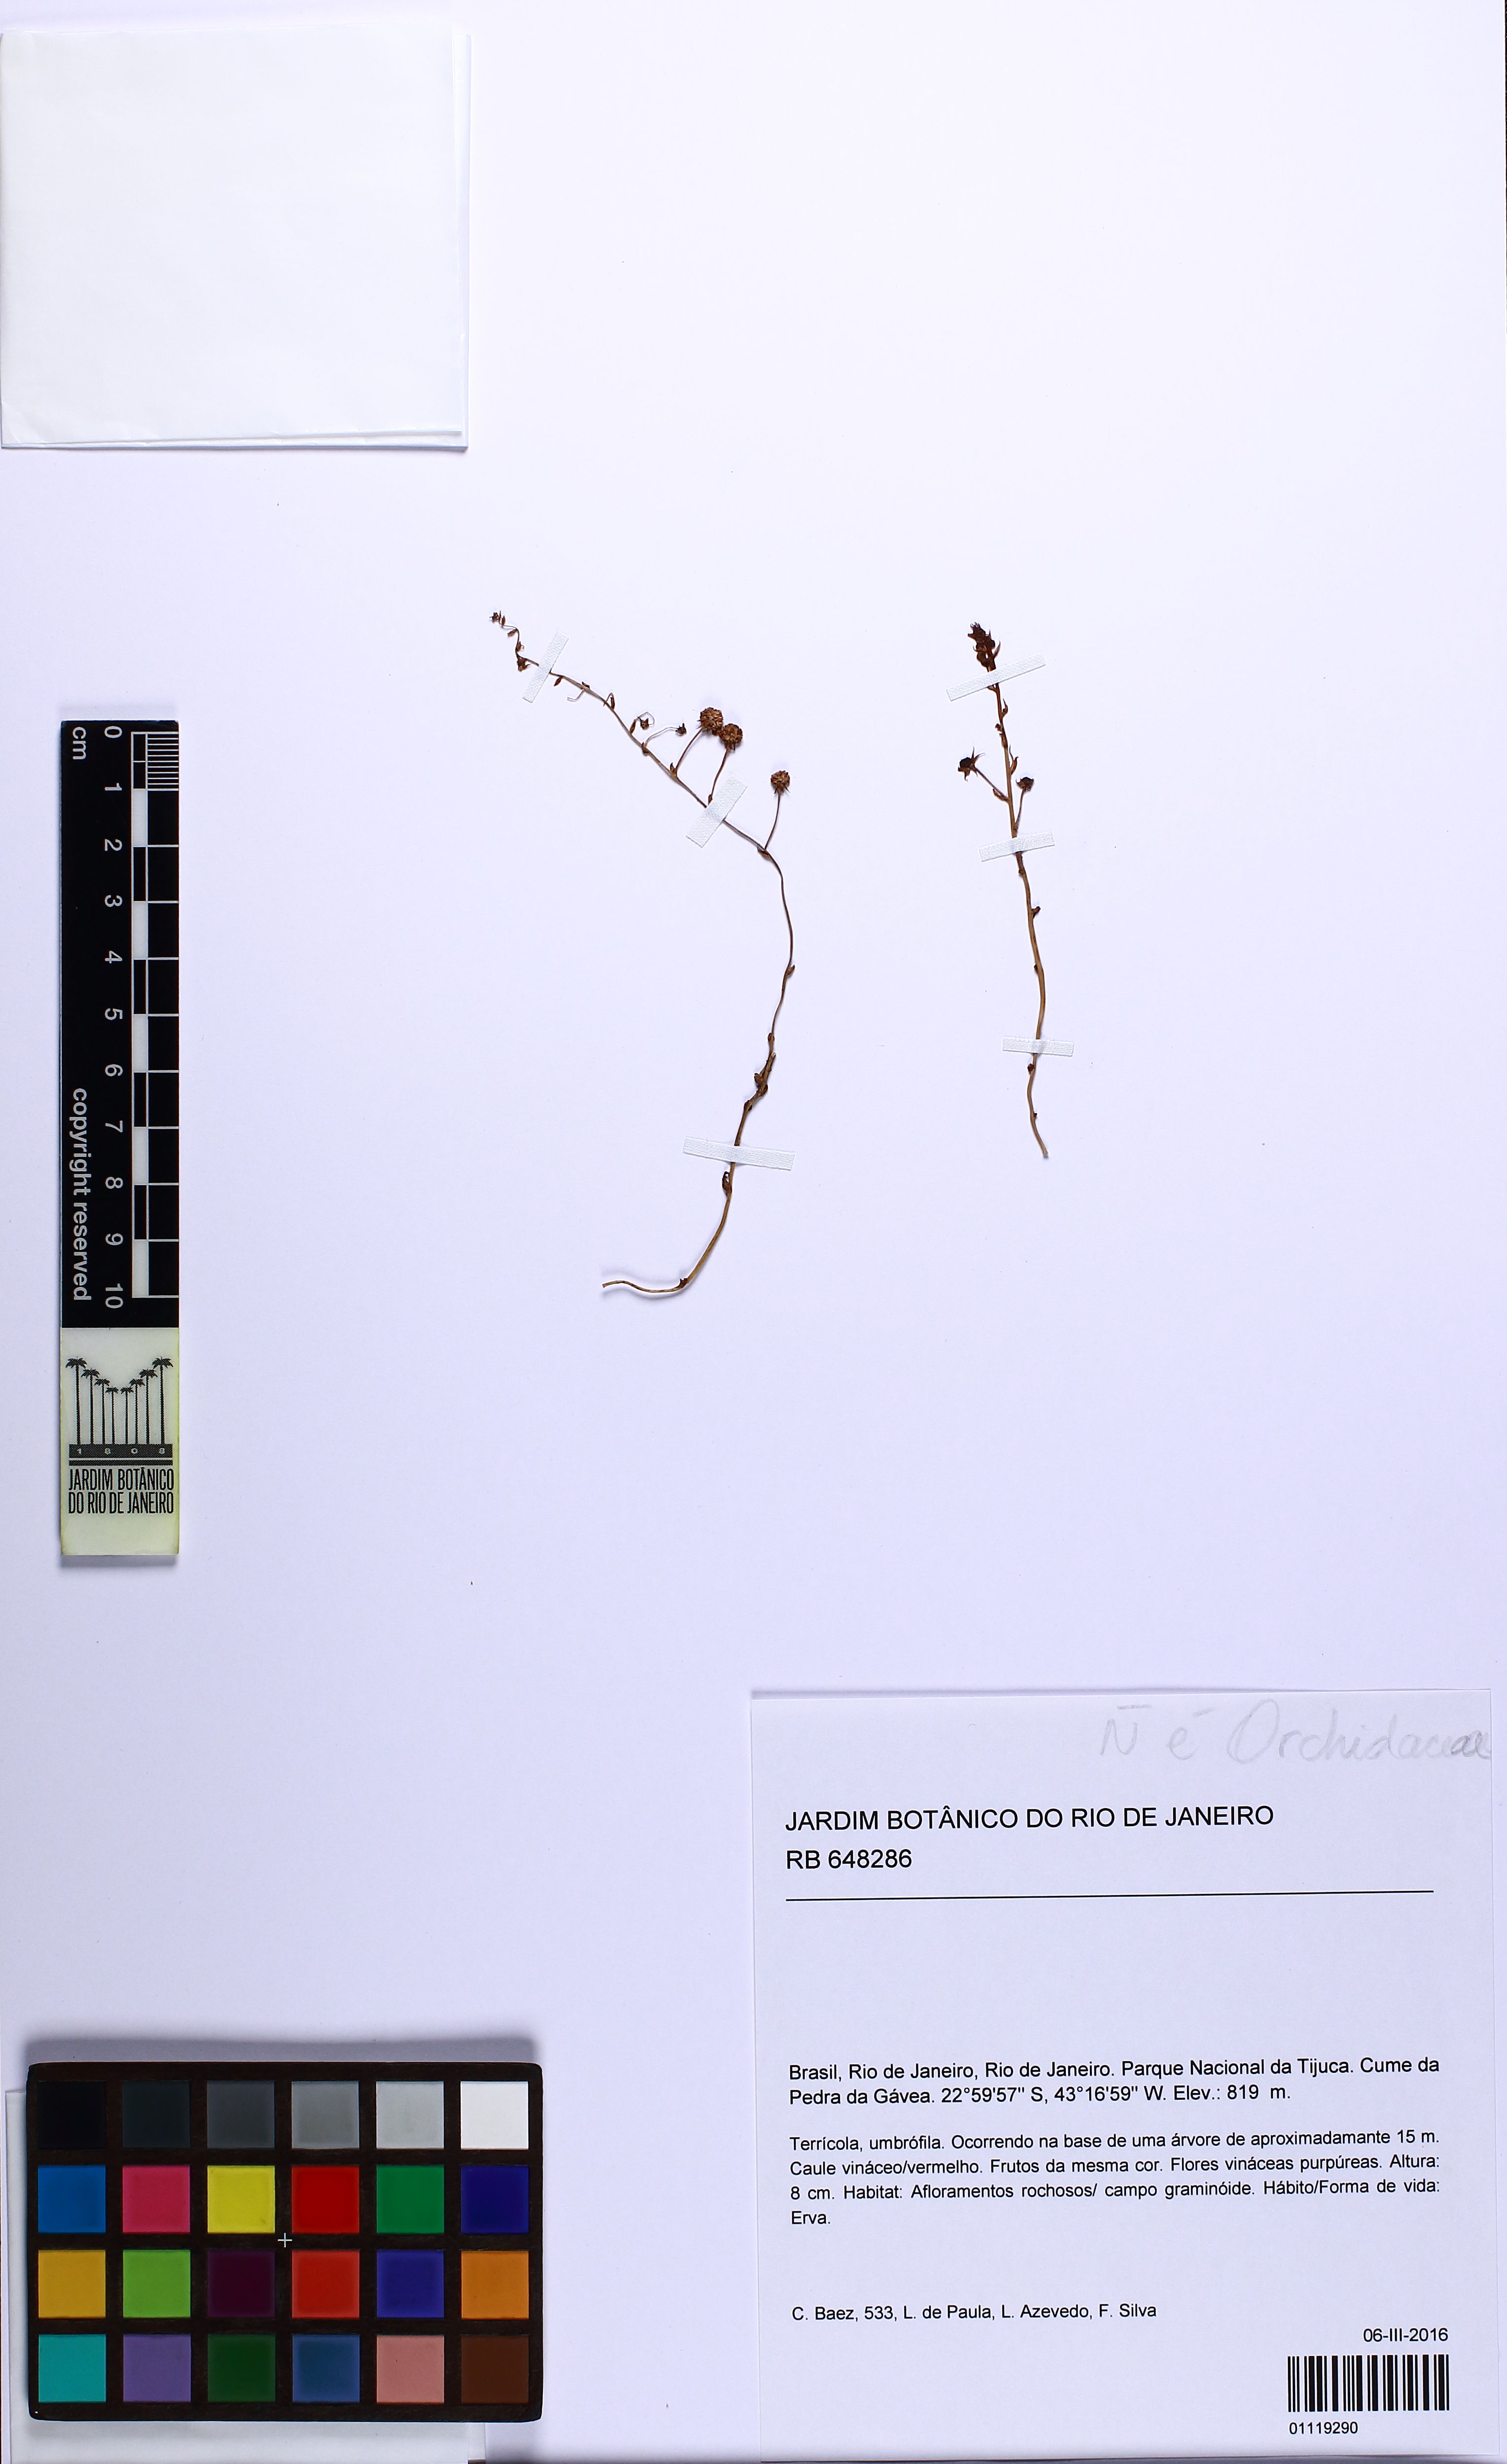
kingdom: Plantae
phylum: Tracheophyta
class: Liliopsida
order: Pandanales
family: Triuridaceae
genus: Sciaphila
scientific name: Sciaphila schwackeana
